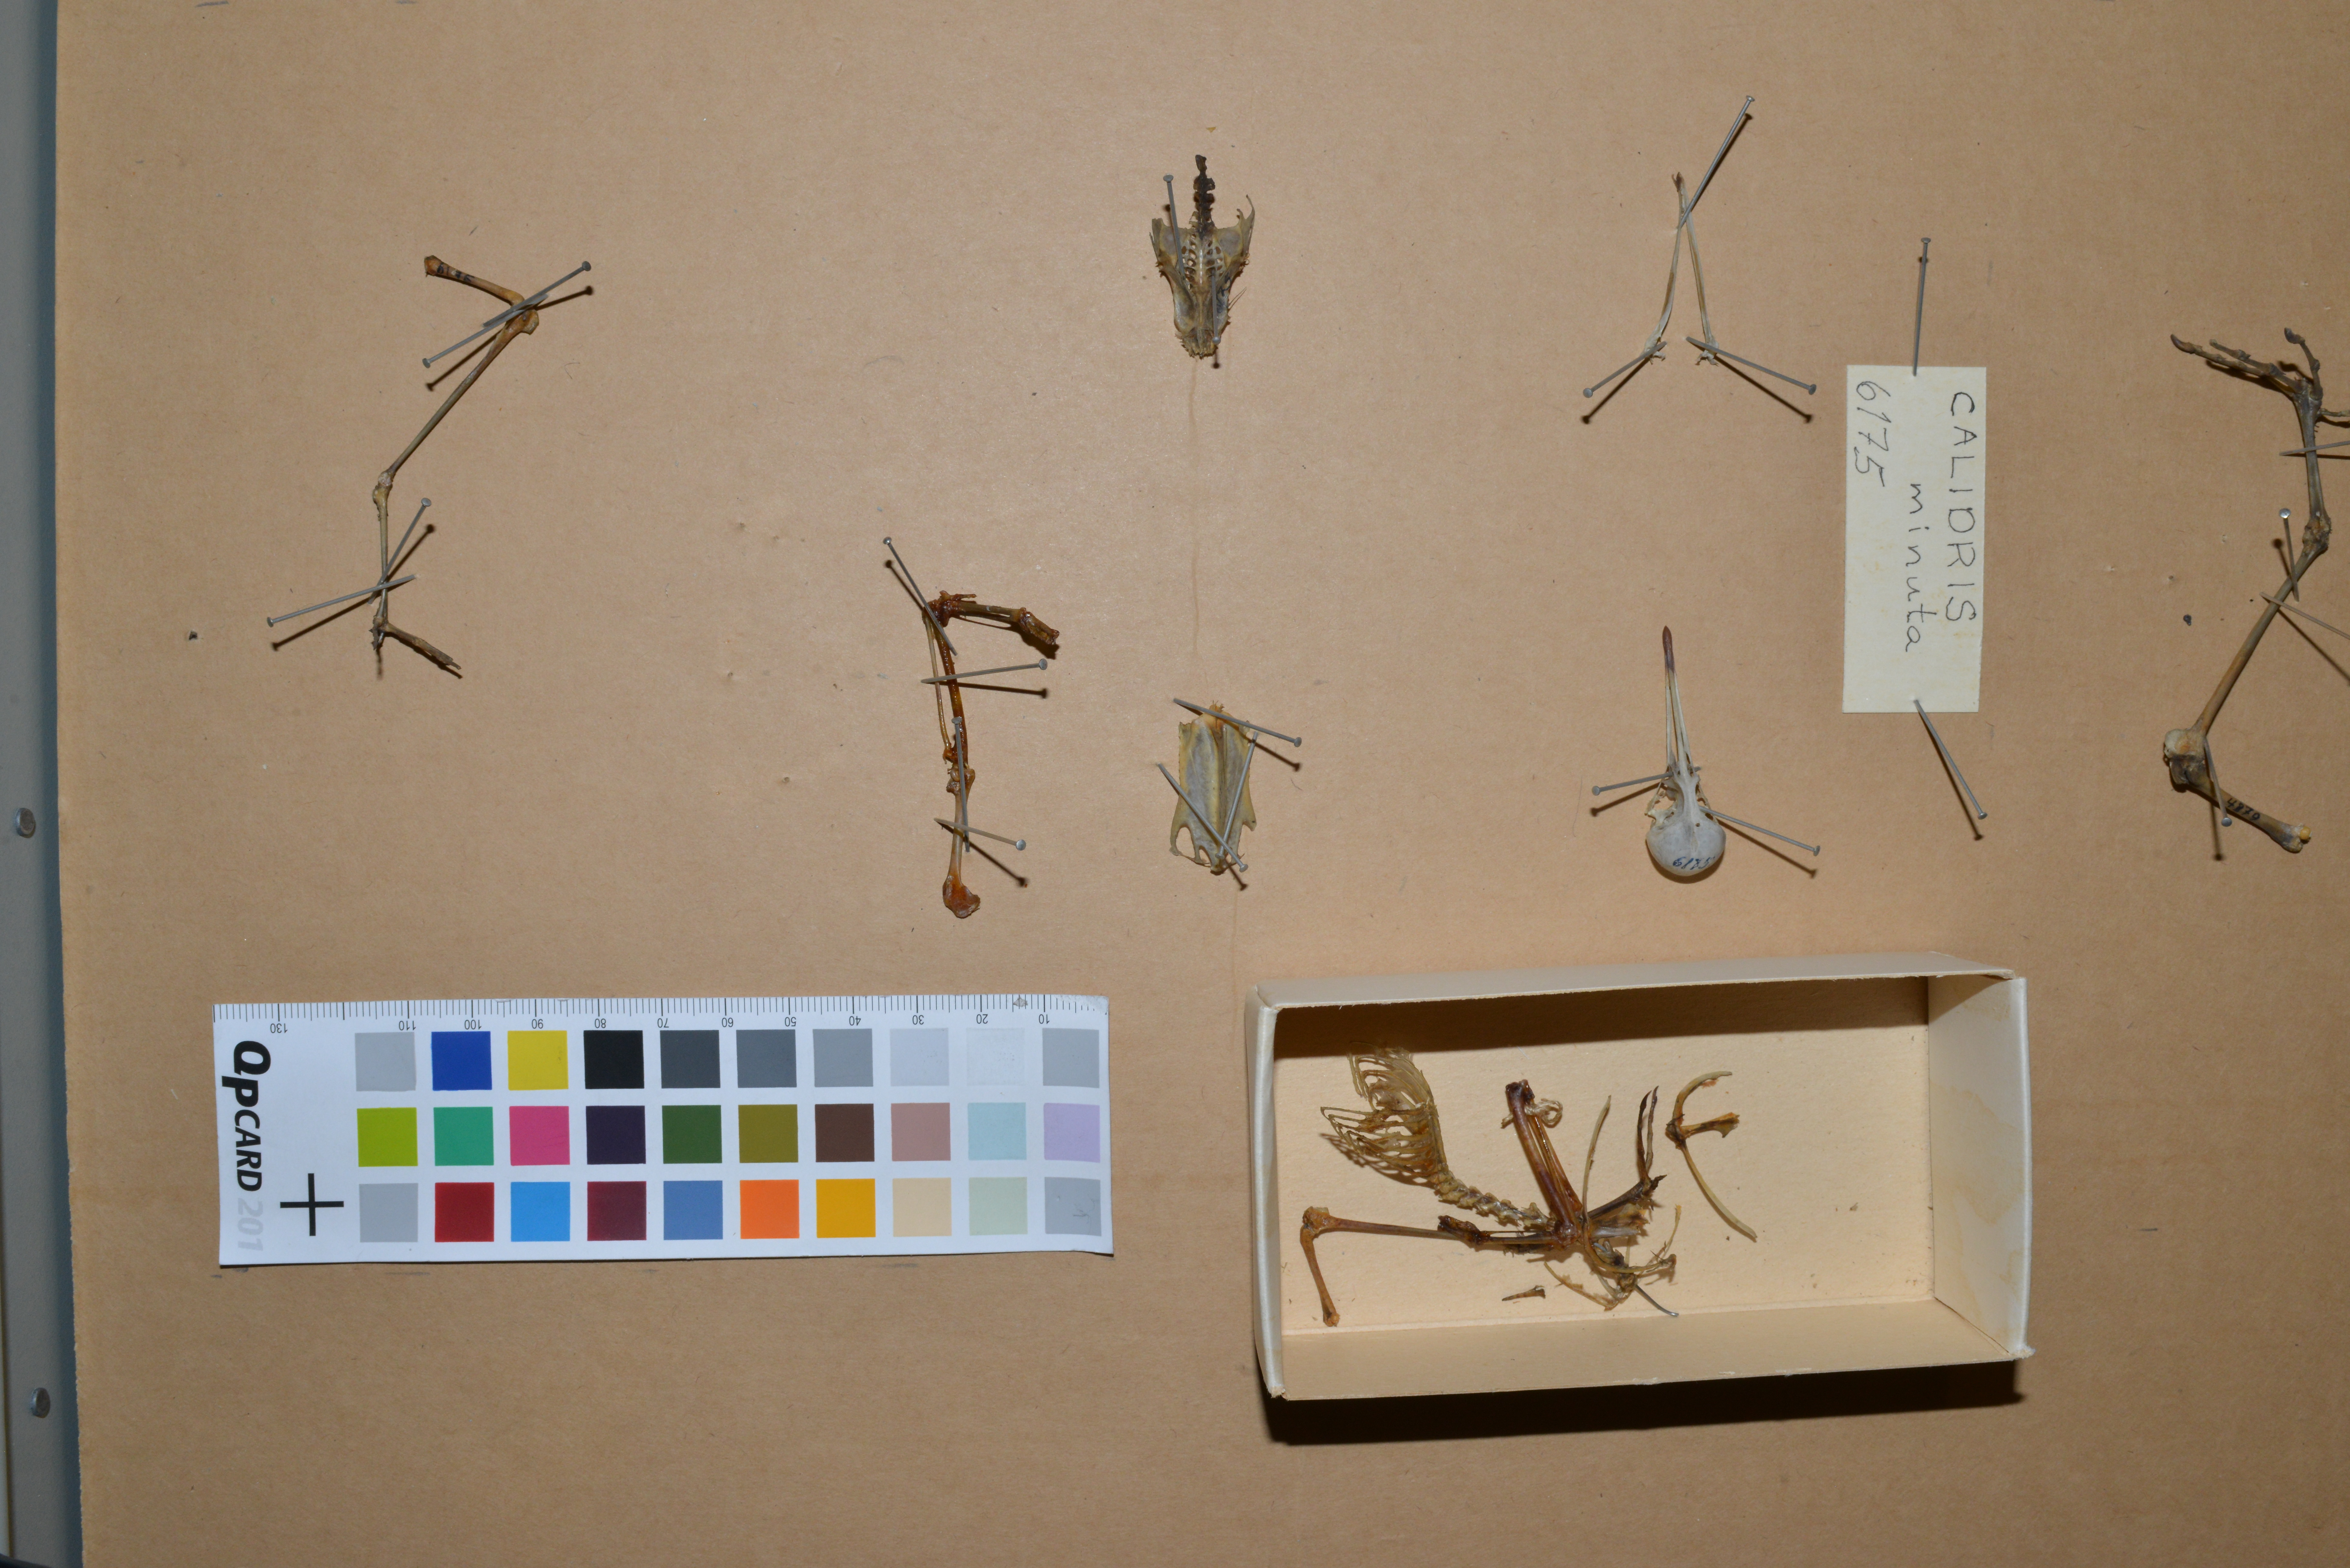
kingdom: Animalia
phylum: Chordata
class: Aves
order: Charadriiformes
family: Scolopacidae
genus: Calidris
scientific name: Calidris minuta
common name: Little stint
